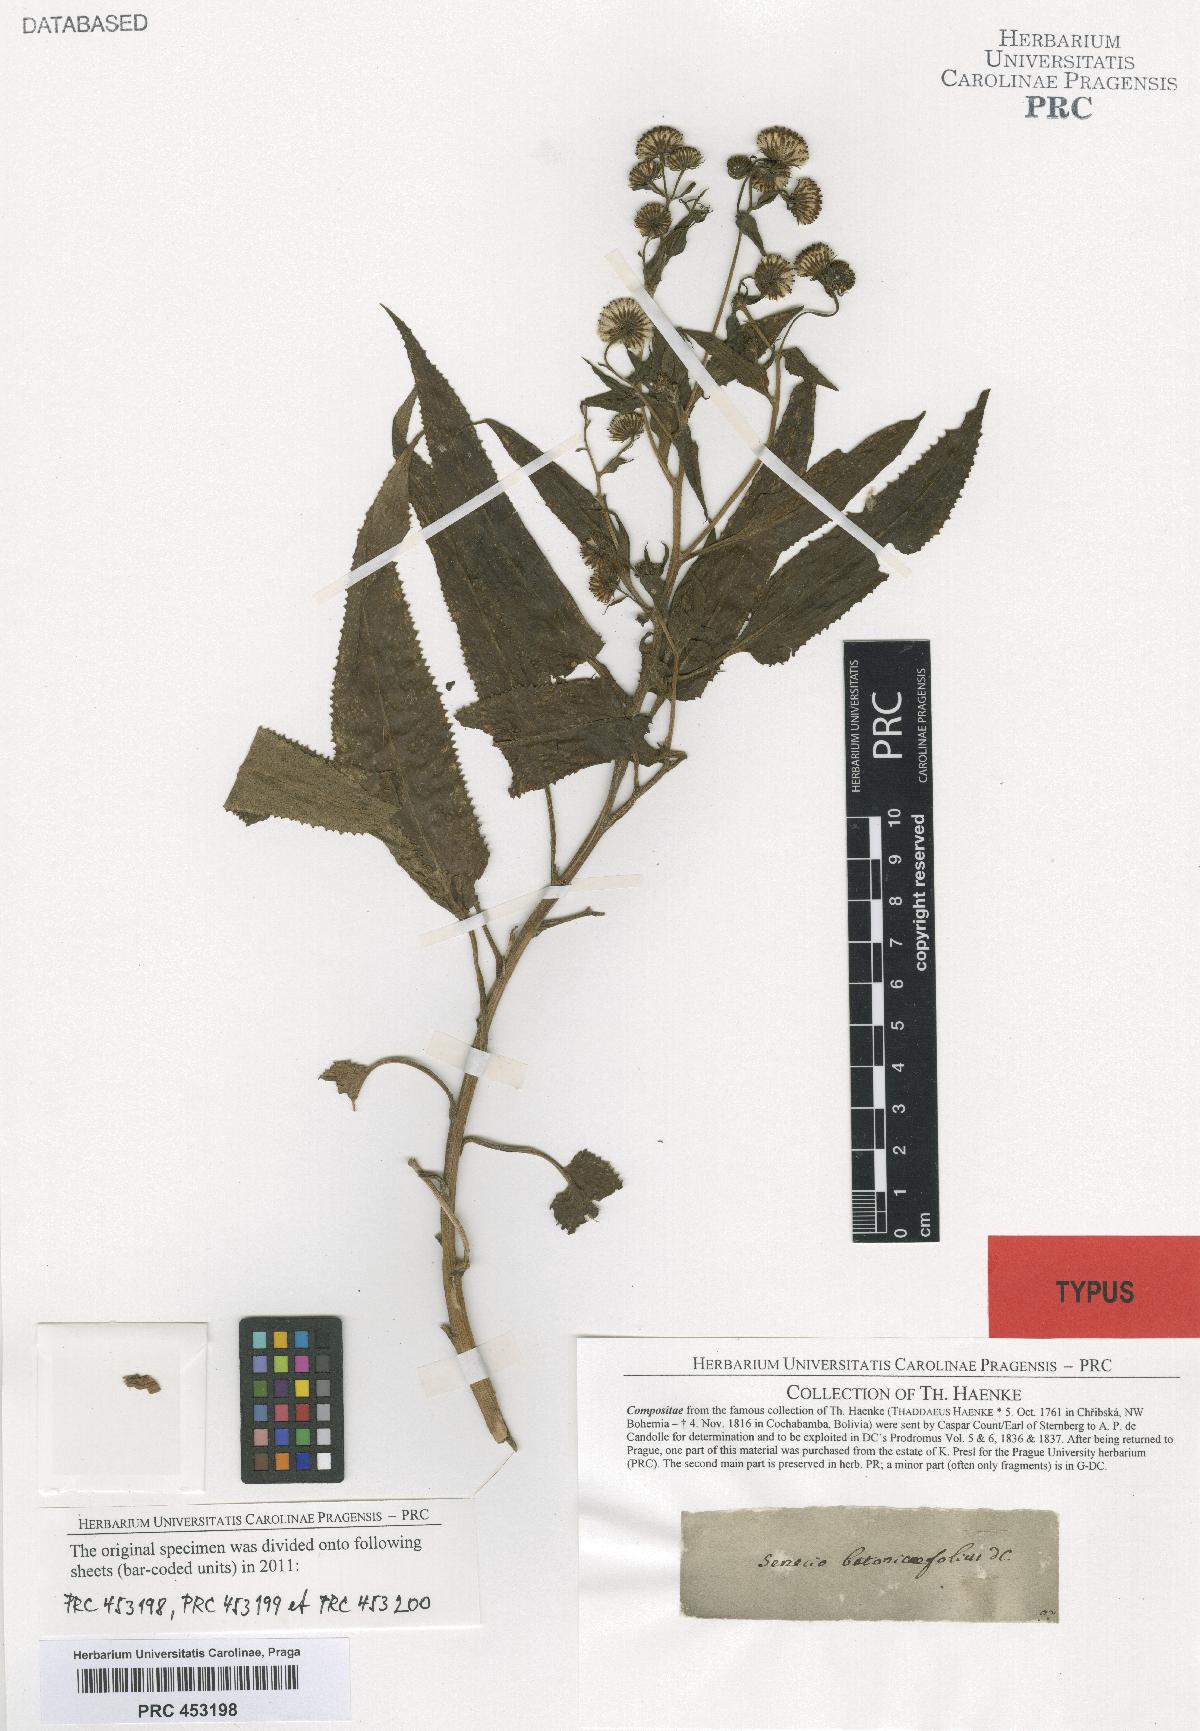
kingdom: Plantae
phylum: Tracheophyta
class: Magnoliopsida
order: Asterales
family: Asteraceae
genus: Aetheolaena
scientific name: Aetheolaena betonicifolia
